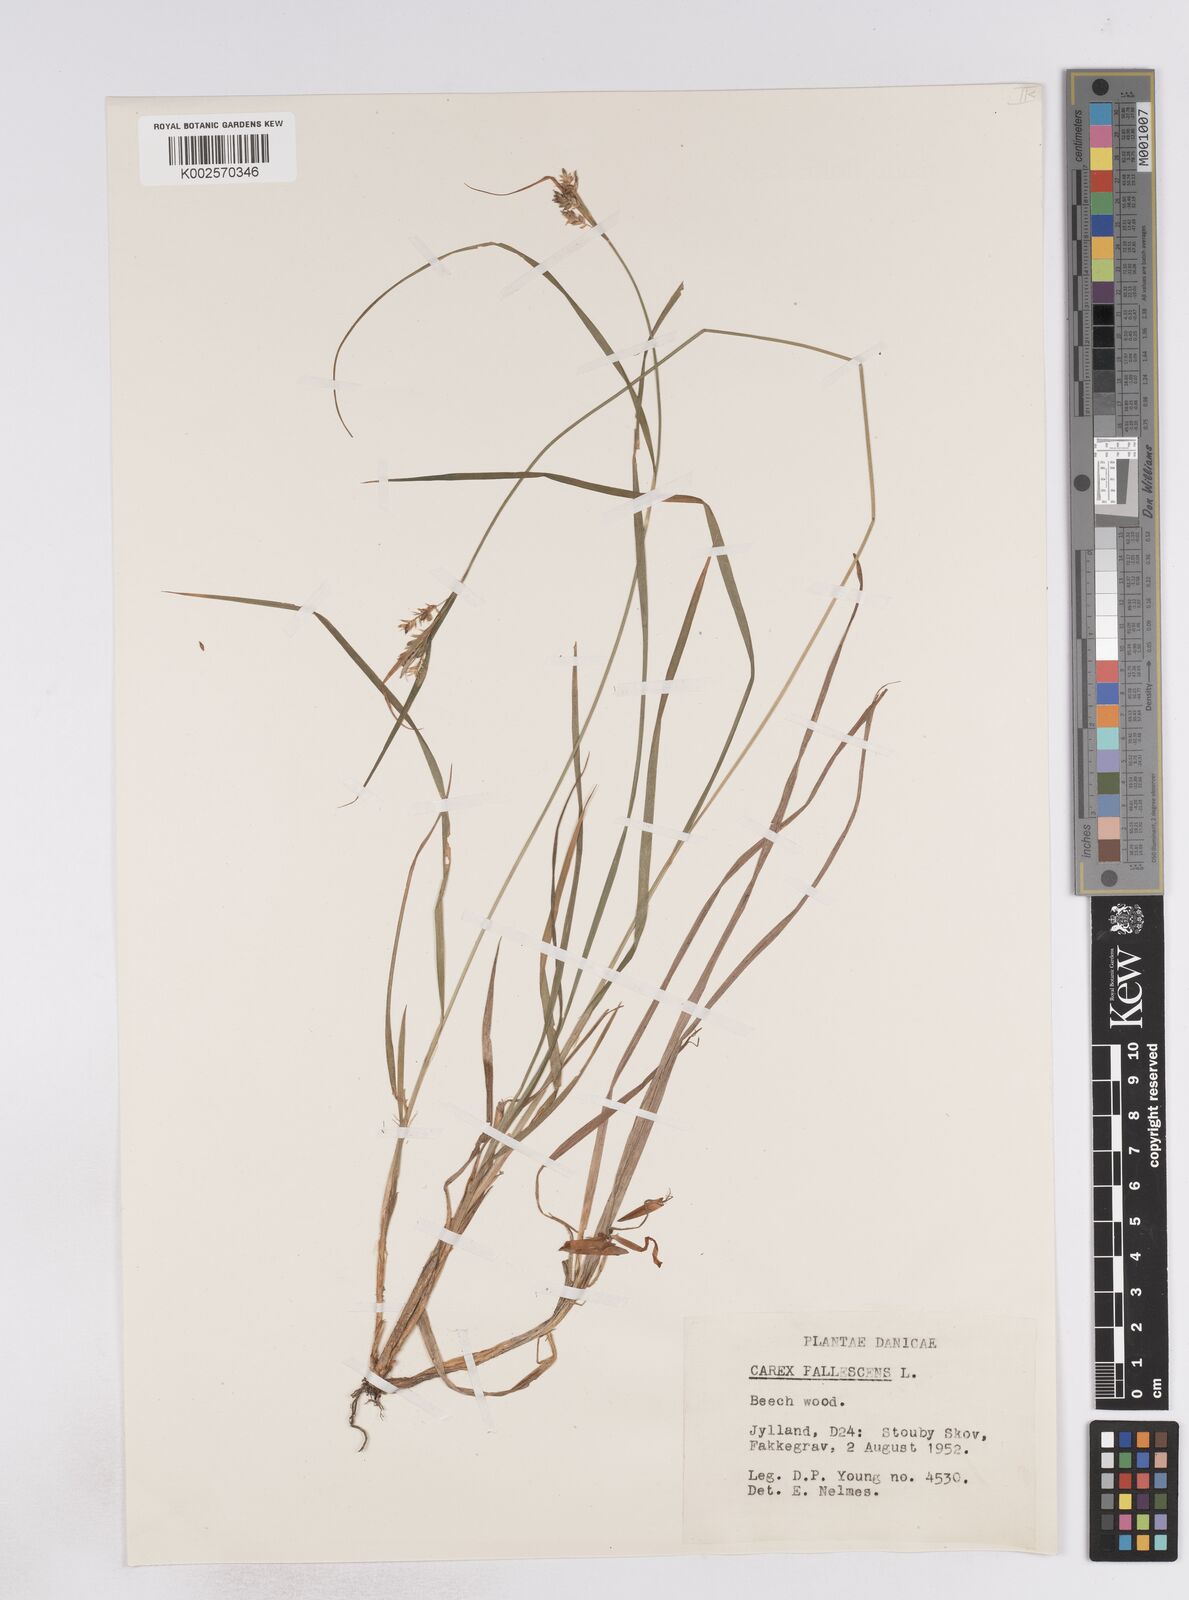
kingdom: Plantae
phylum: Tracheophyta
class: Liliopsida
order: Poales
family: Cyperaceae
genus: Carex
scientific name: Carex pallescens
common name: Pale sedge
